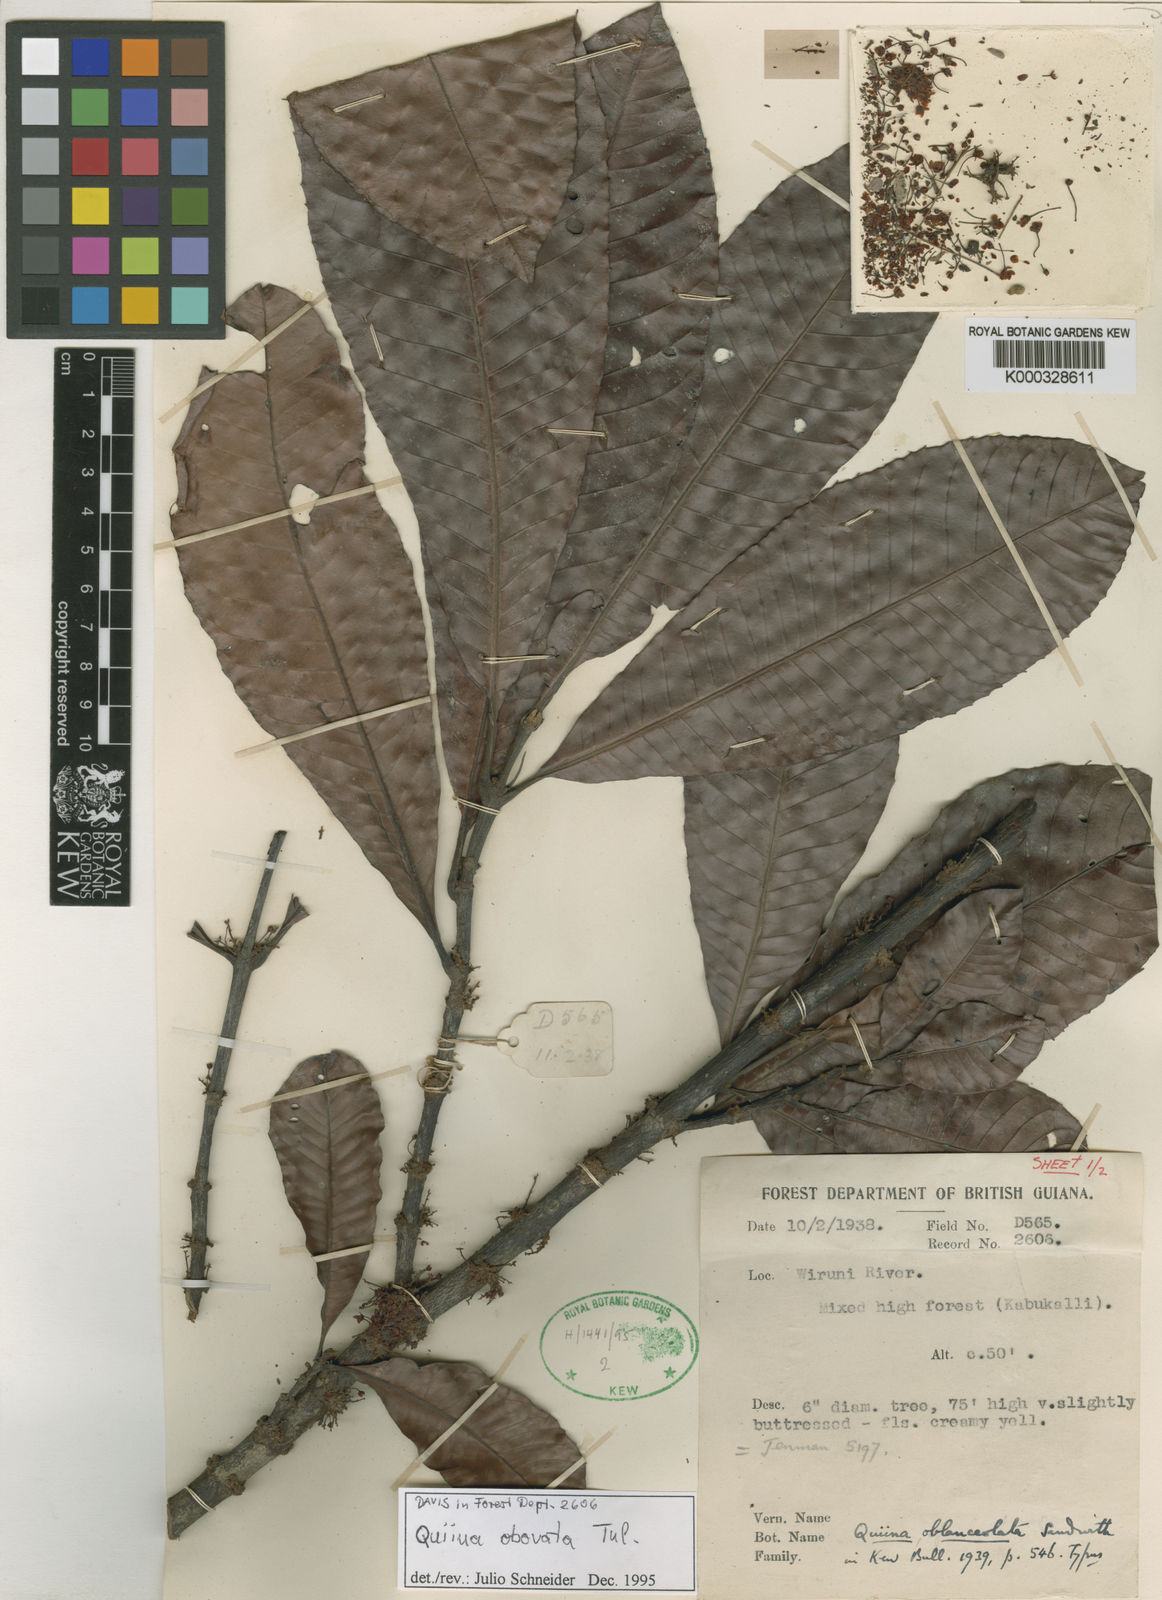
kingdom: Plantae
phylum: Tracheophyta
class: Magnoliopsida
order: Malpighiales
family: Quiinaceae
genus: Quiina
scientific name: Quiina obovata
